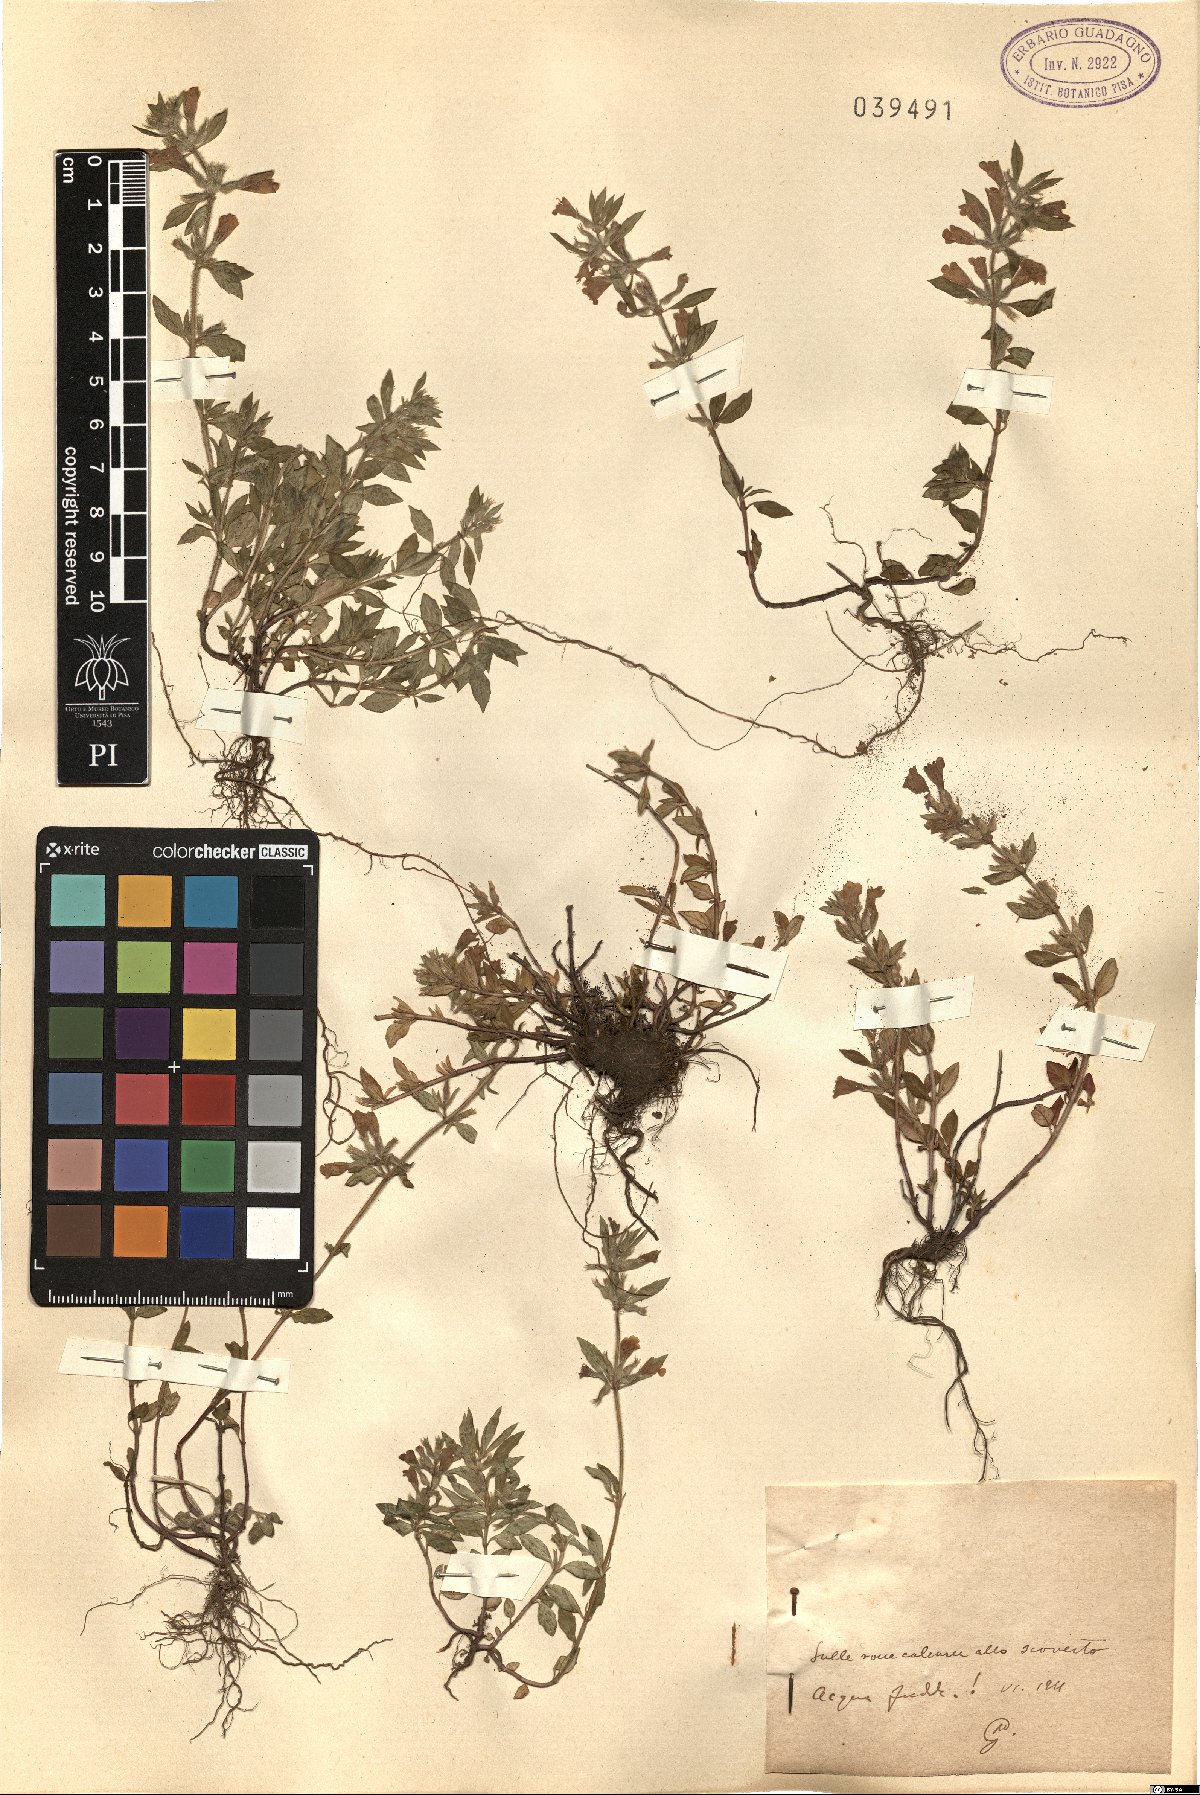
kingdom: Plantae
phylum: Tracheophyta
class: Magnoliopsida
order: Lamiales
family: Lamiaceae
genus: Calamintha
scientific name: Calamintha
